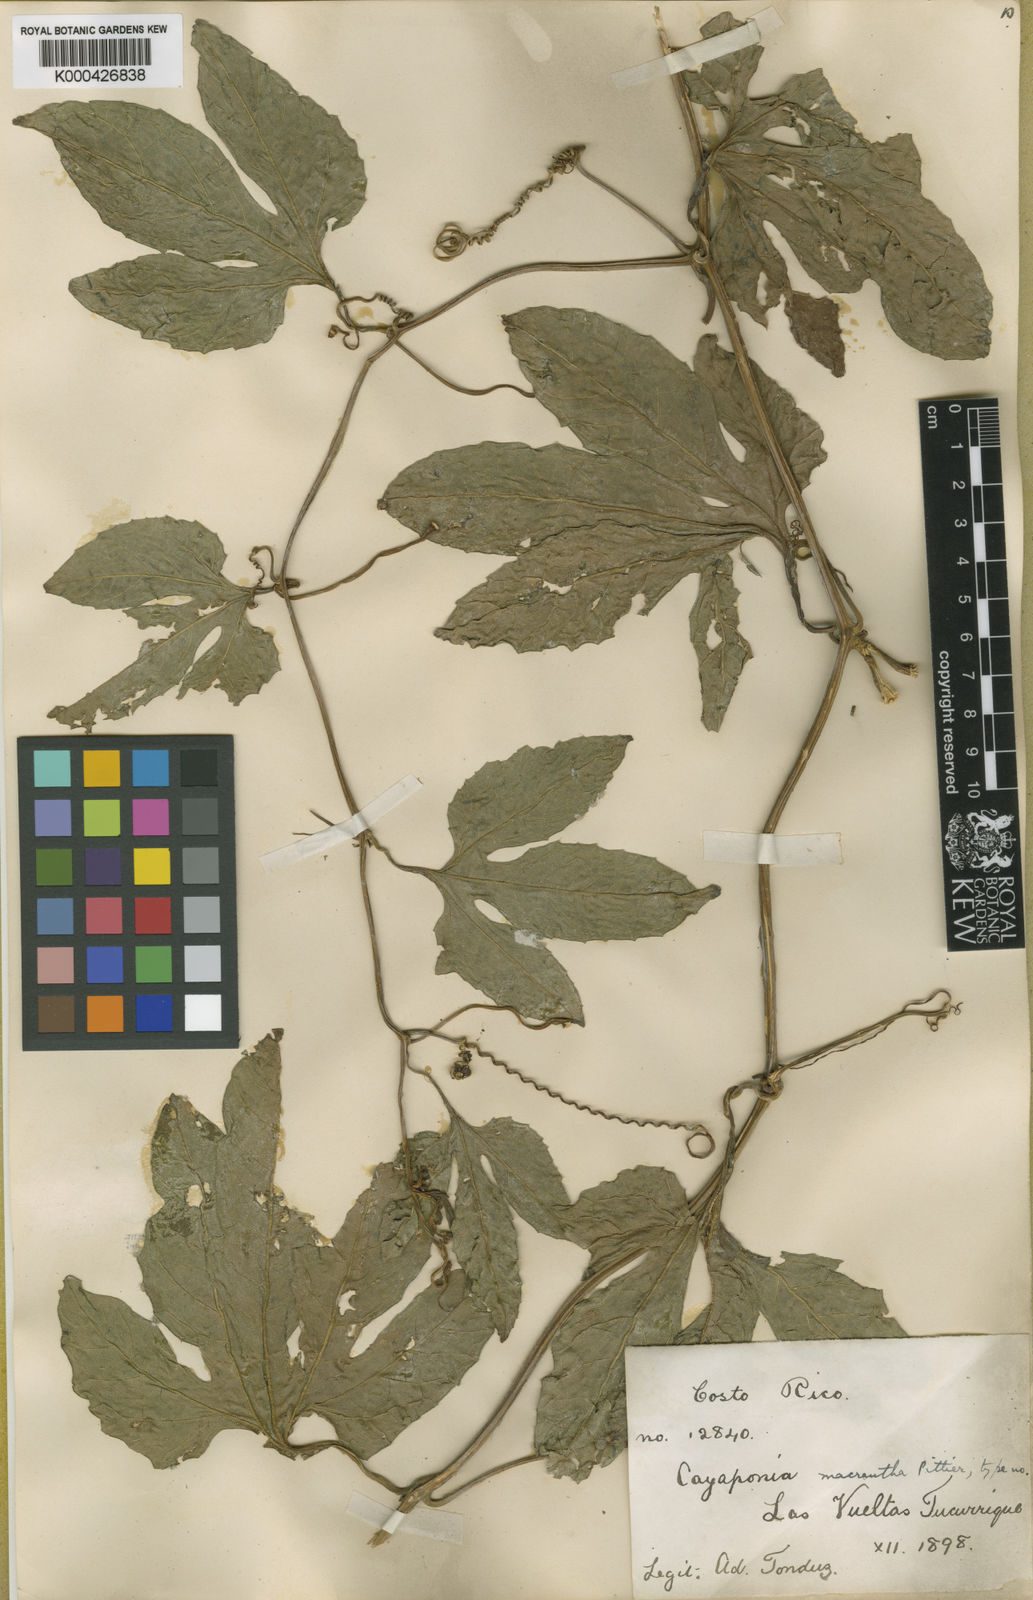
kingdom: Plantae
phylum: Tracheophyta
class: Magnoliopsida
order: Cucurbitales
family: Cucurbitaceae
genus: Cionosicys
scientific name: Cionosicys macranthus
